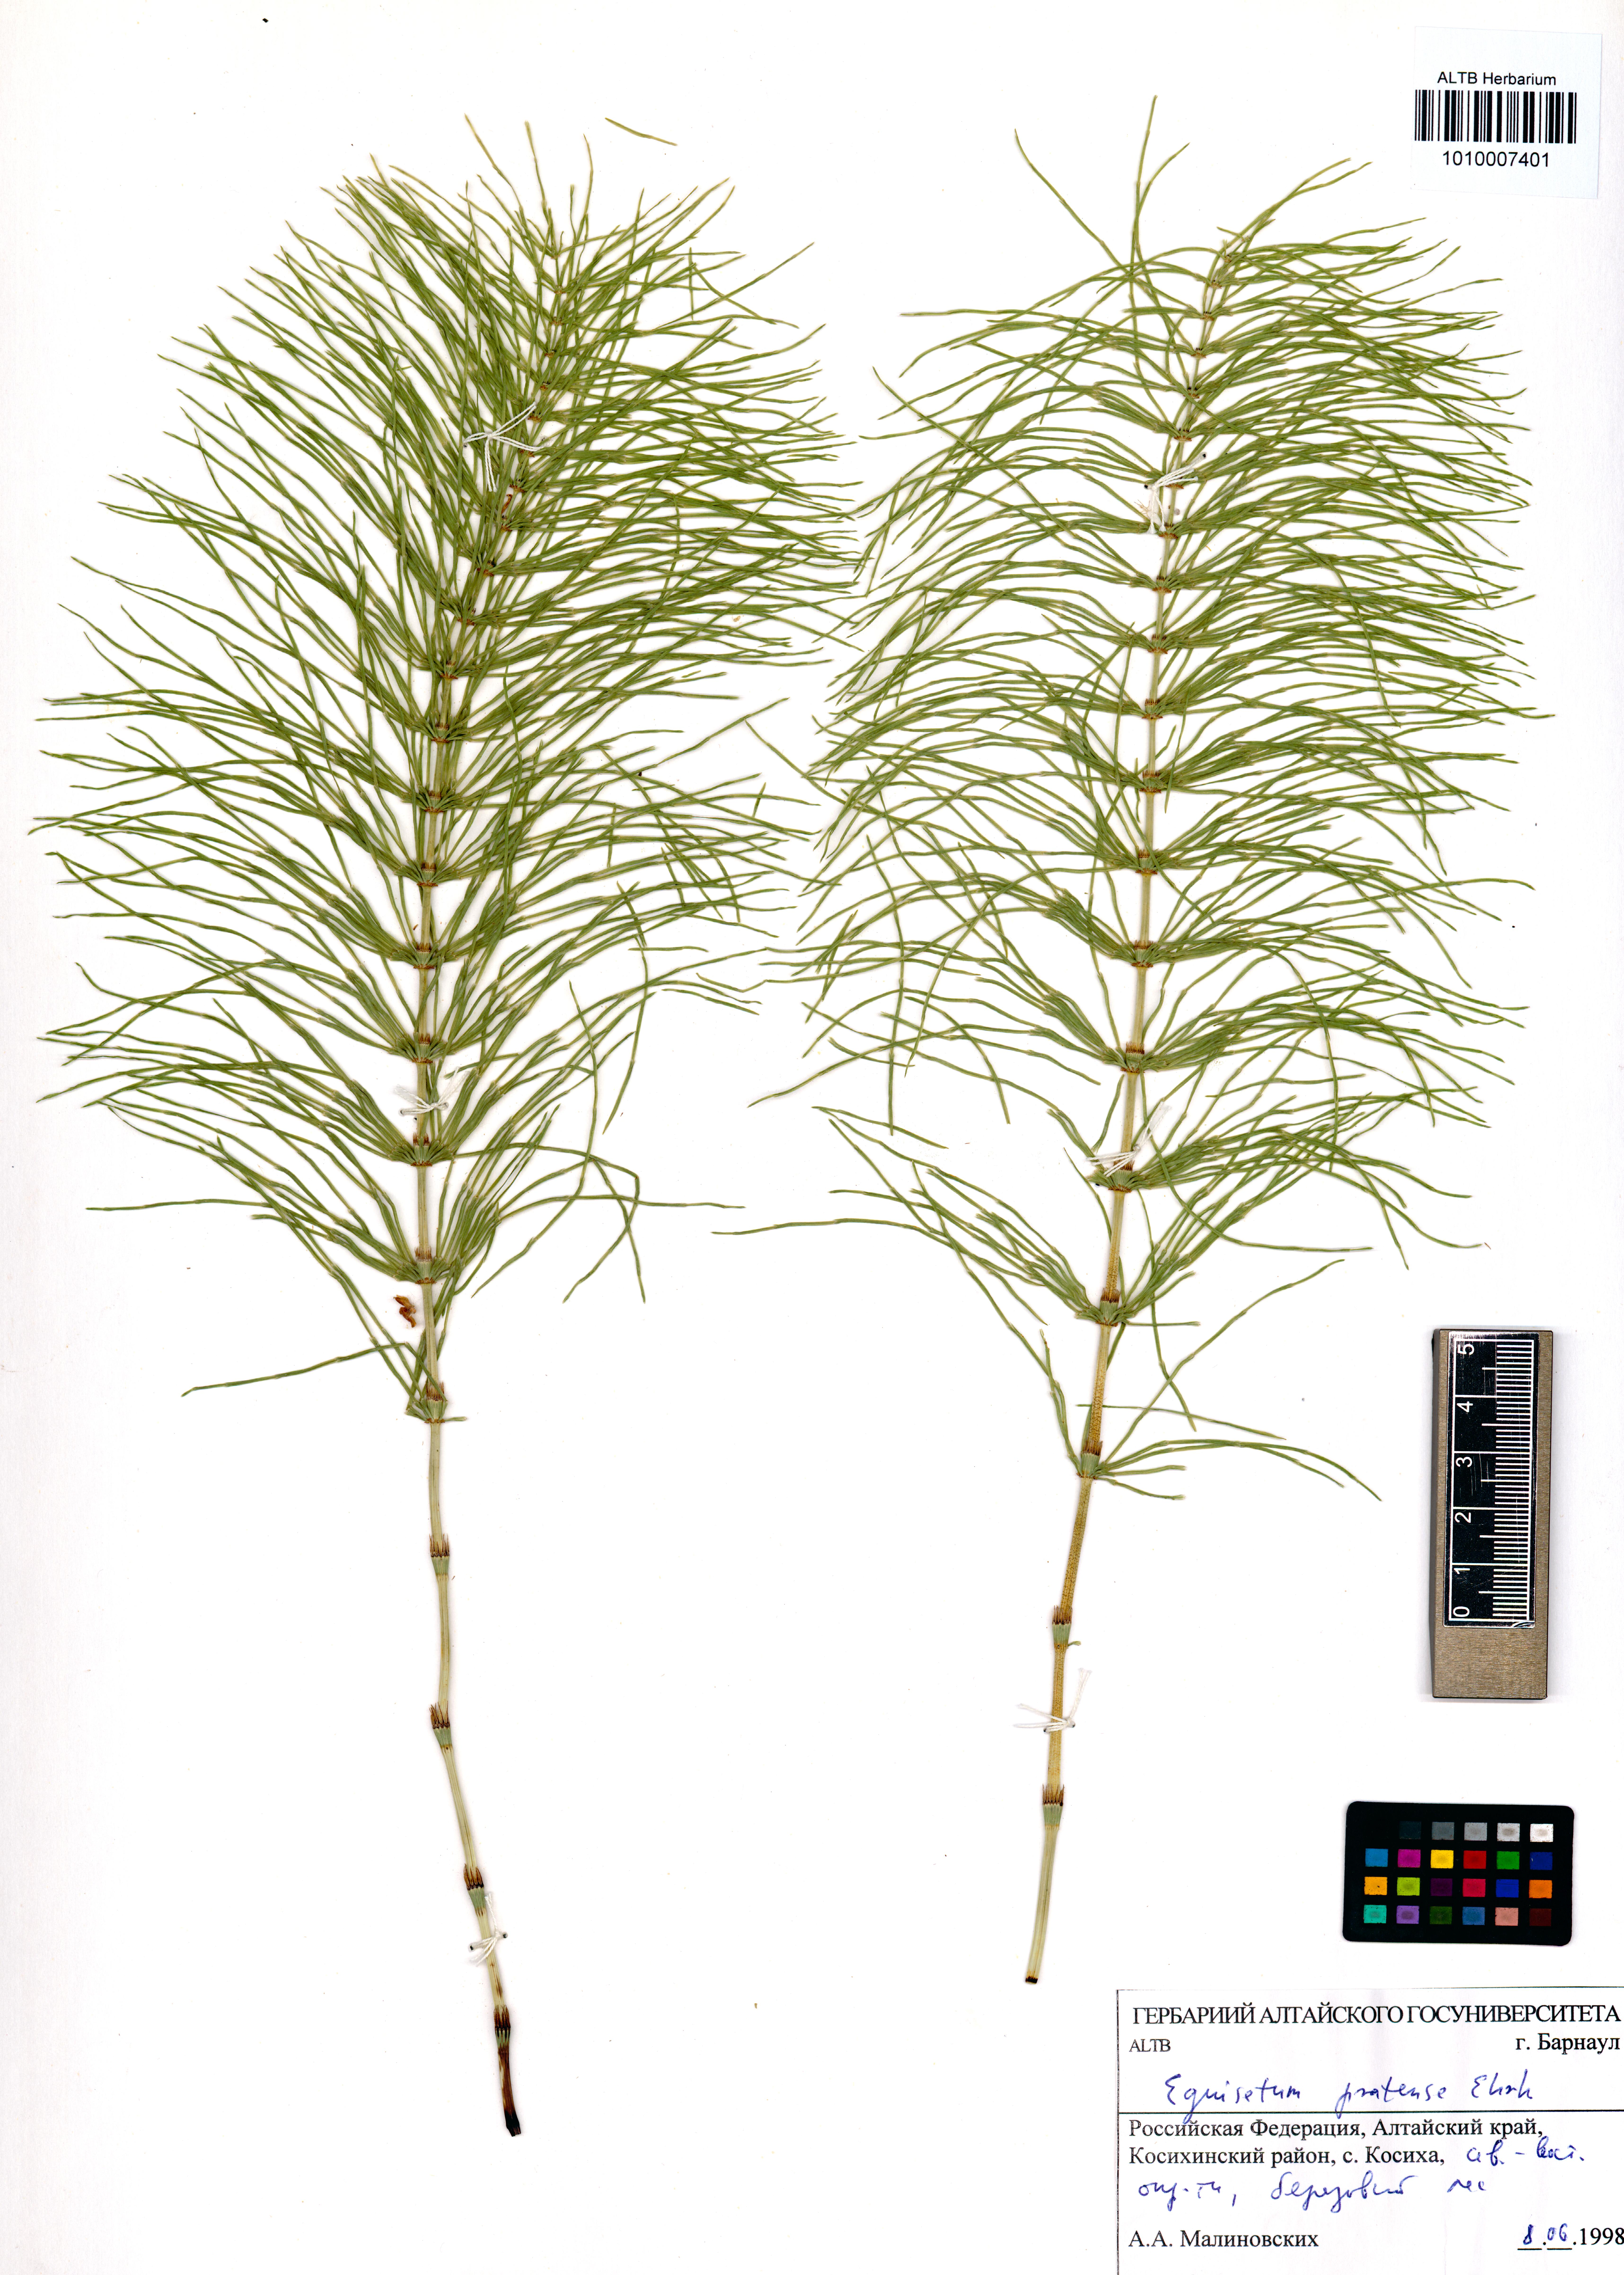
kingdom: Plantae
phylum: Tracheophyta
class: Polypodiopsida
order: Equisetales
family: Equisetaceae
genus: Equisetum
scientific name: Equisetum pratense
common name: Meadow horsetail
